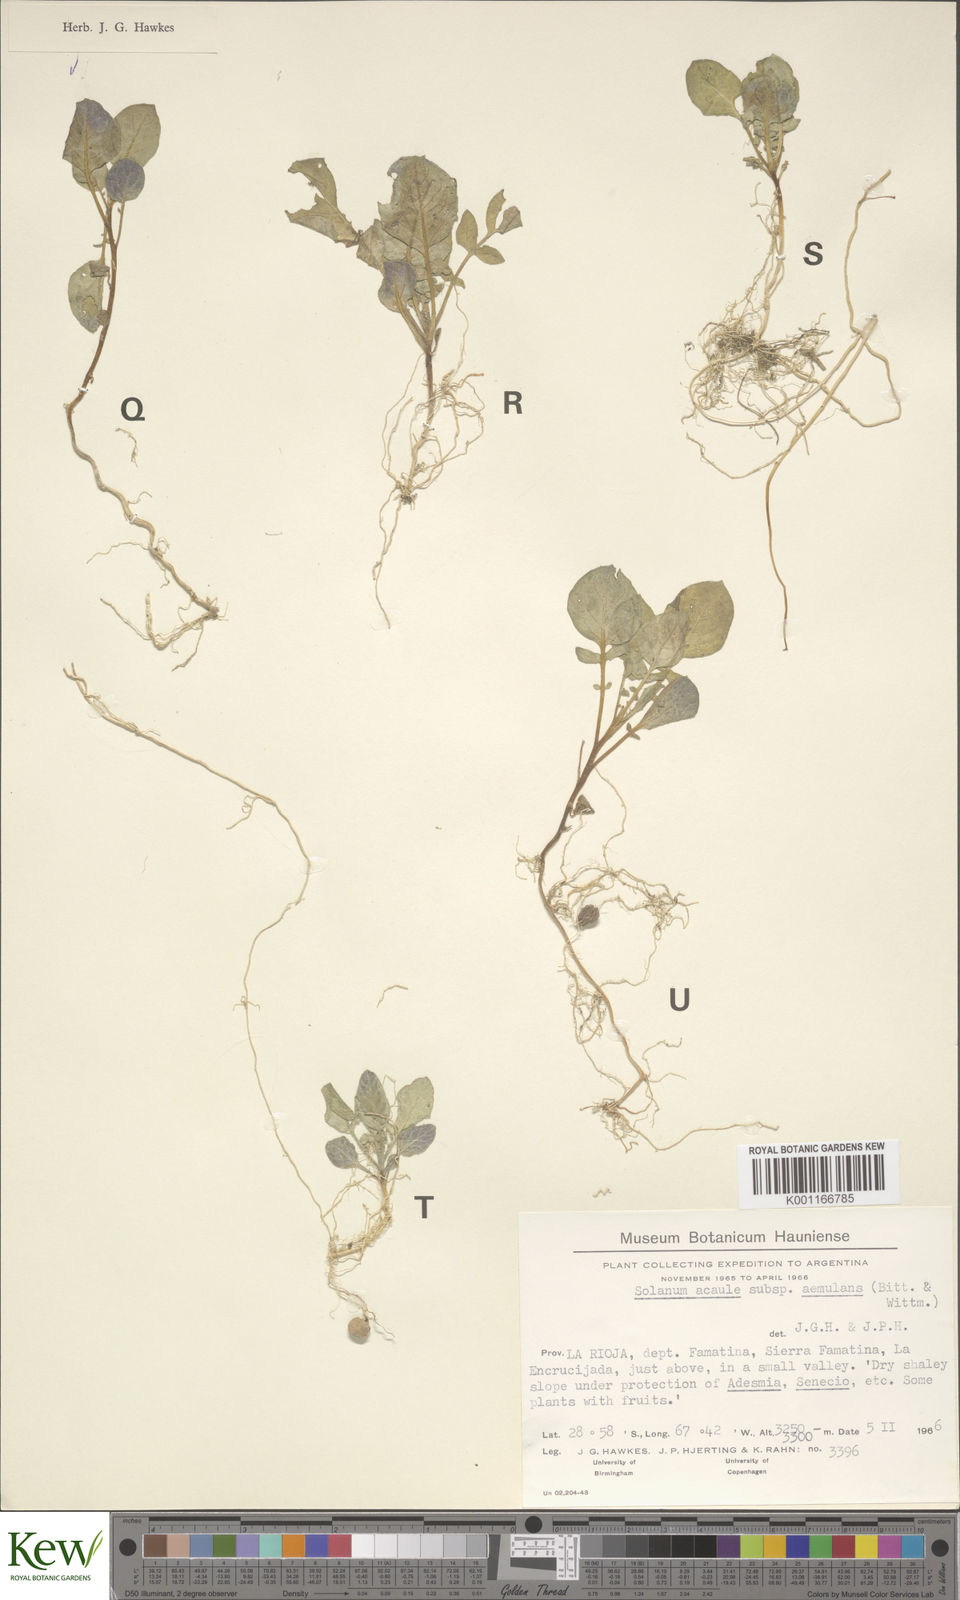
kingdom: Plantae
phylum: Tracheophyta
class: Magnoliopsida
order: Solanales
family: Solanaceae
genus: Solanum
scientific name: Solanum aemulans
